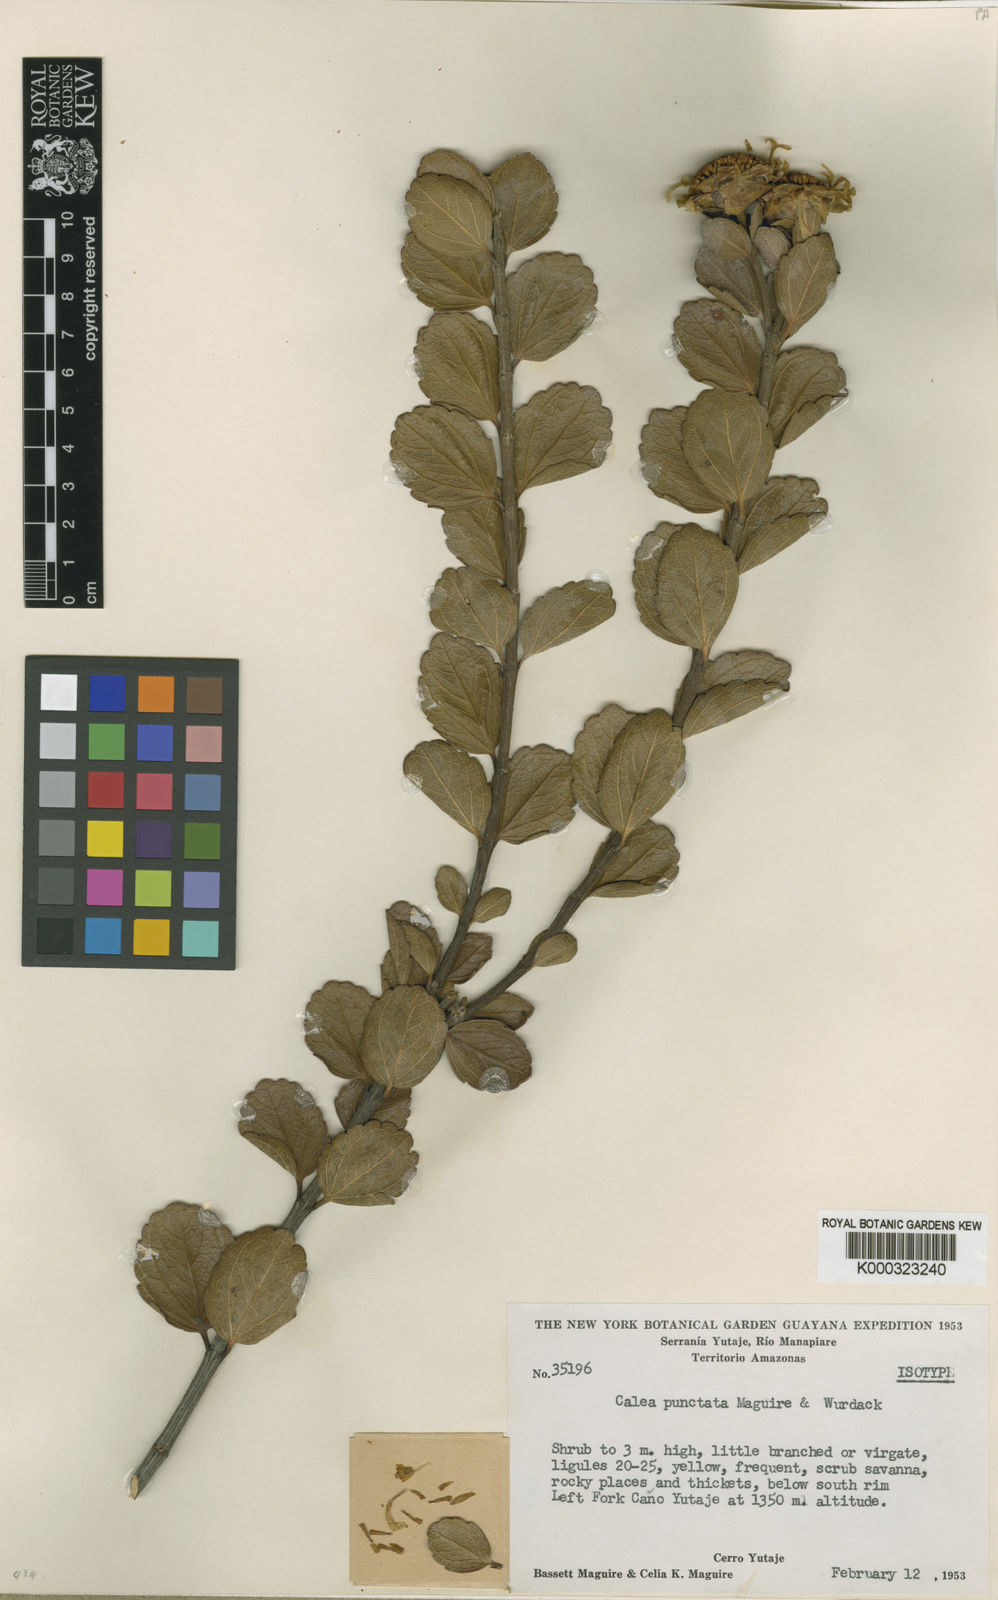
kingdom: Plantae
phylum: Tracheophyta
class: Magnoliopsida
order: Asterales
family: Asteraceae
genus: Calea
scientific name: Calea punctata
